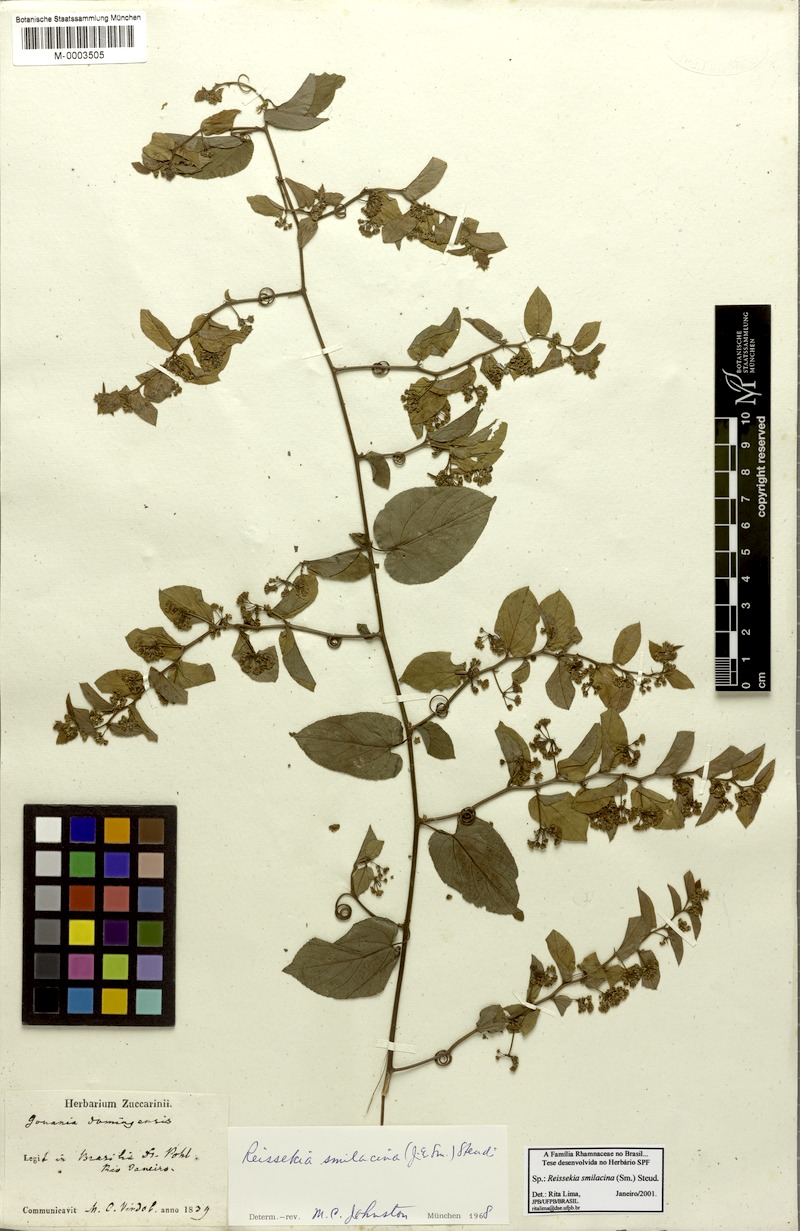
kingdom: Plantae
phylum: Tracheophyta
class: Magnoliopsida
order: Rosales
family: Rhamnaceae
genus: Reissekia
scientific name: Reissekia smilacina
